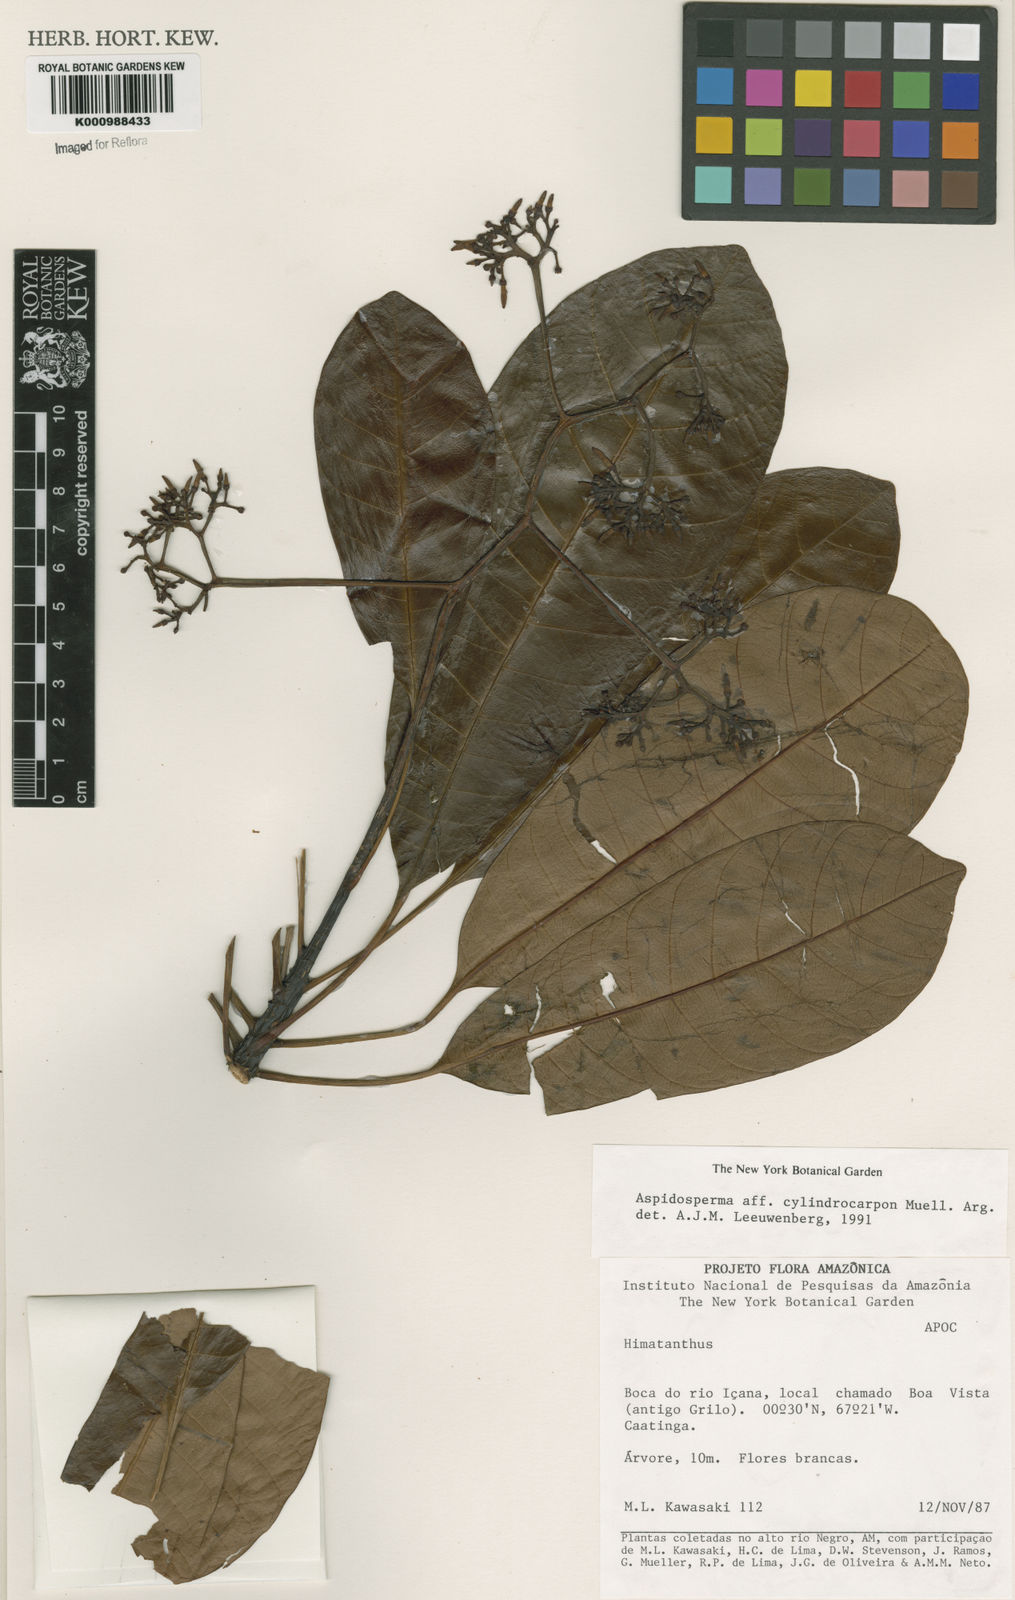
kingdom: Plantae
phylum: Tracheophyta
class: Magnoliopsida
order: Gentianales
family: Apocynaceae
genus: Aspidosperma
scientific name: Aspidosperma
